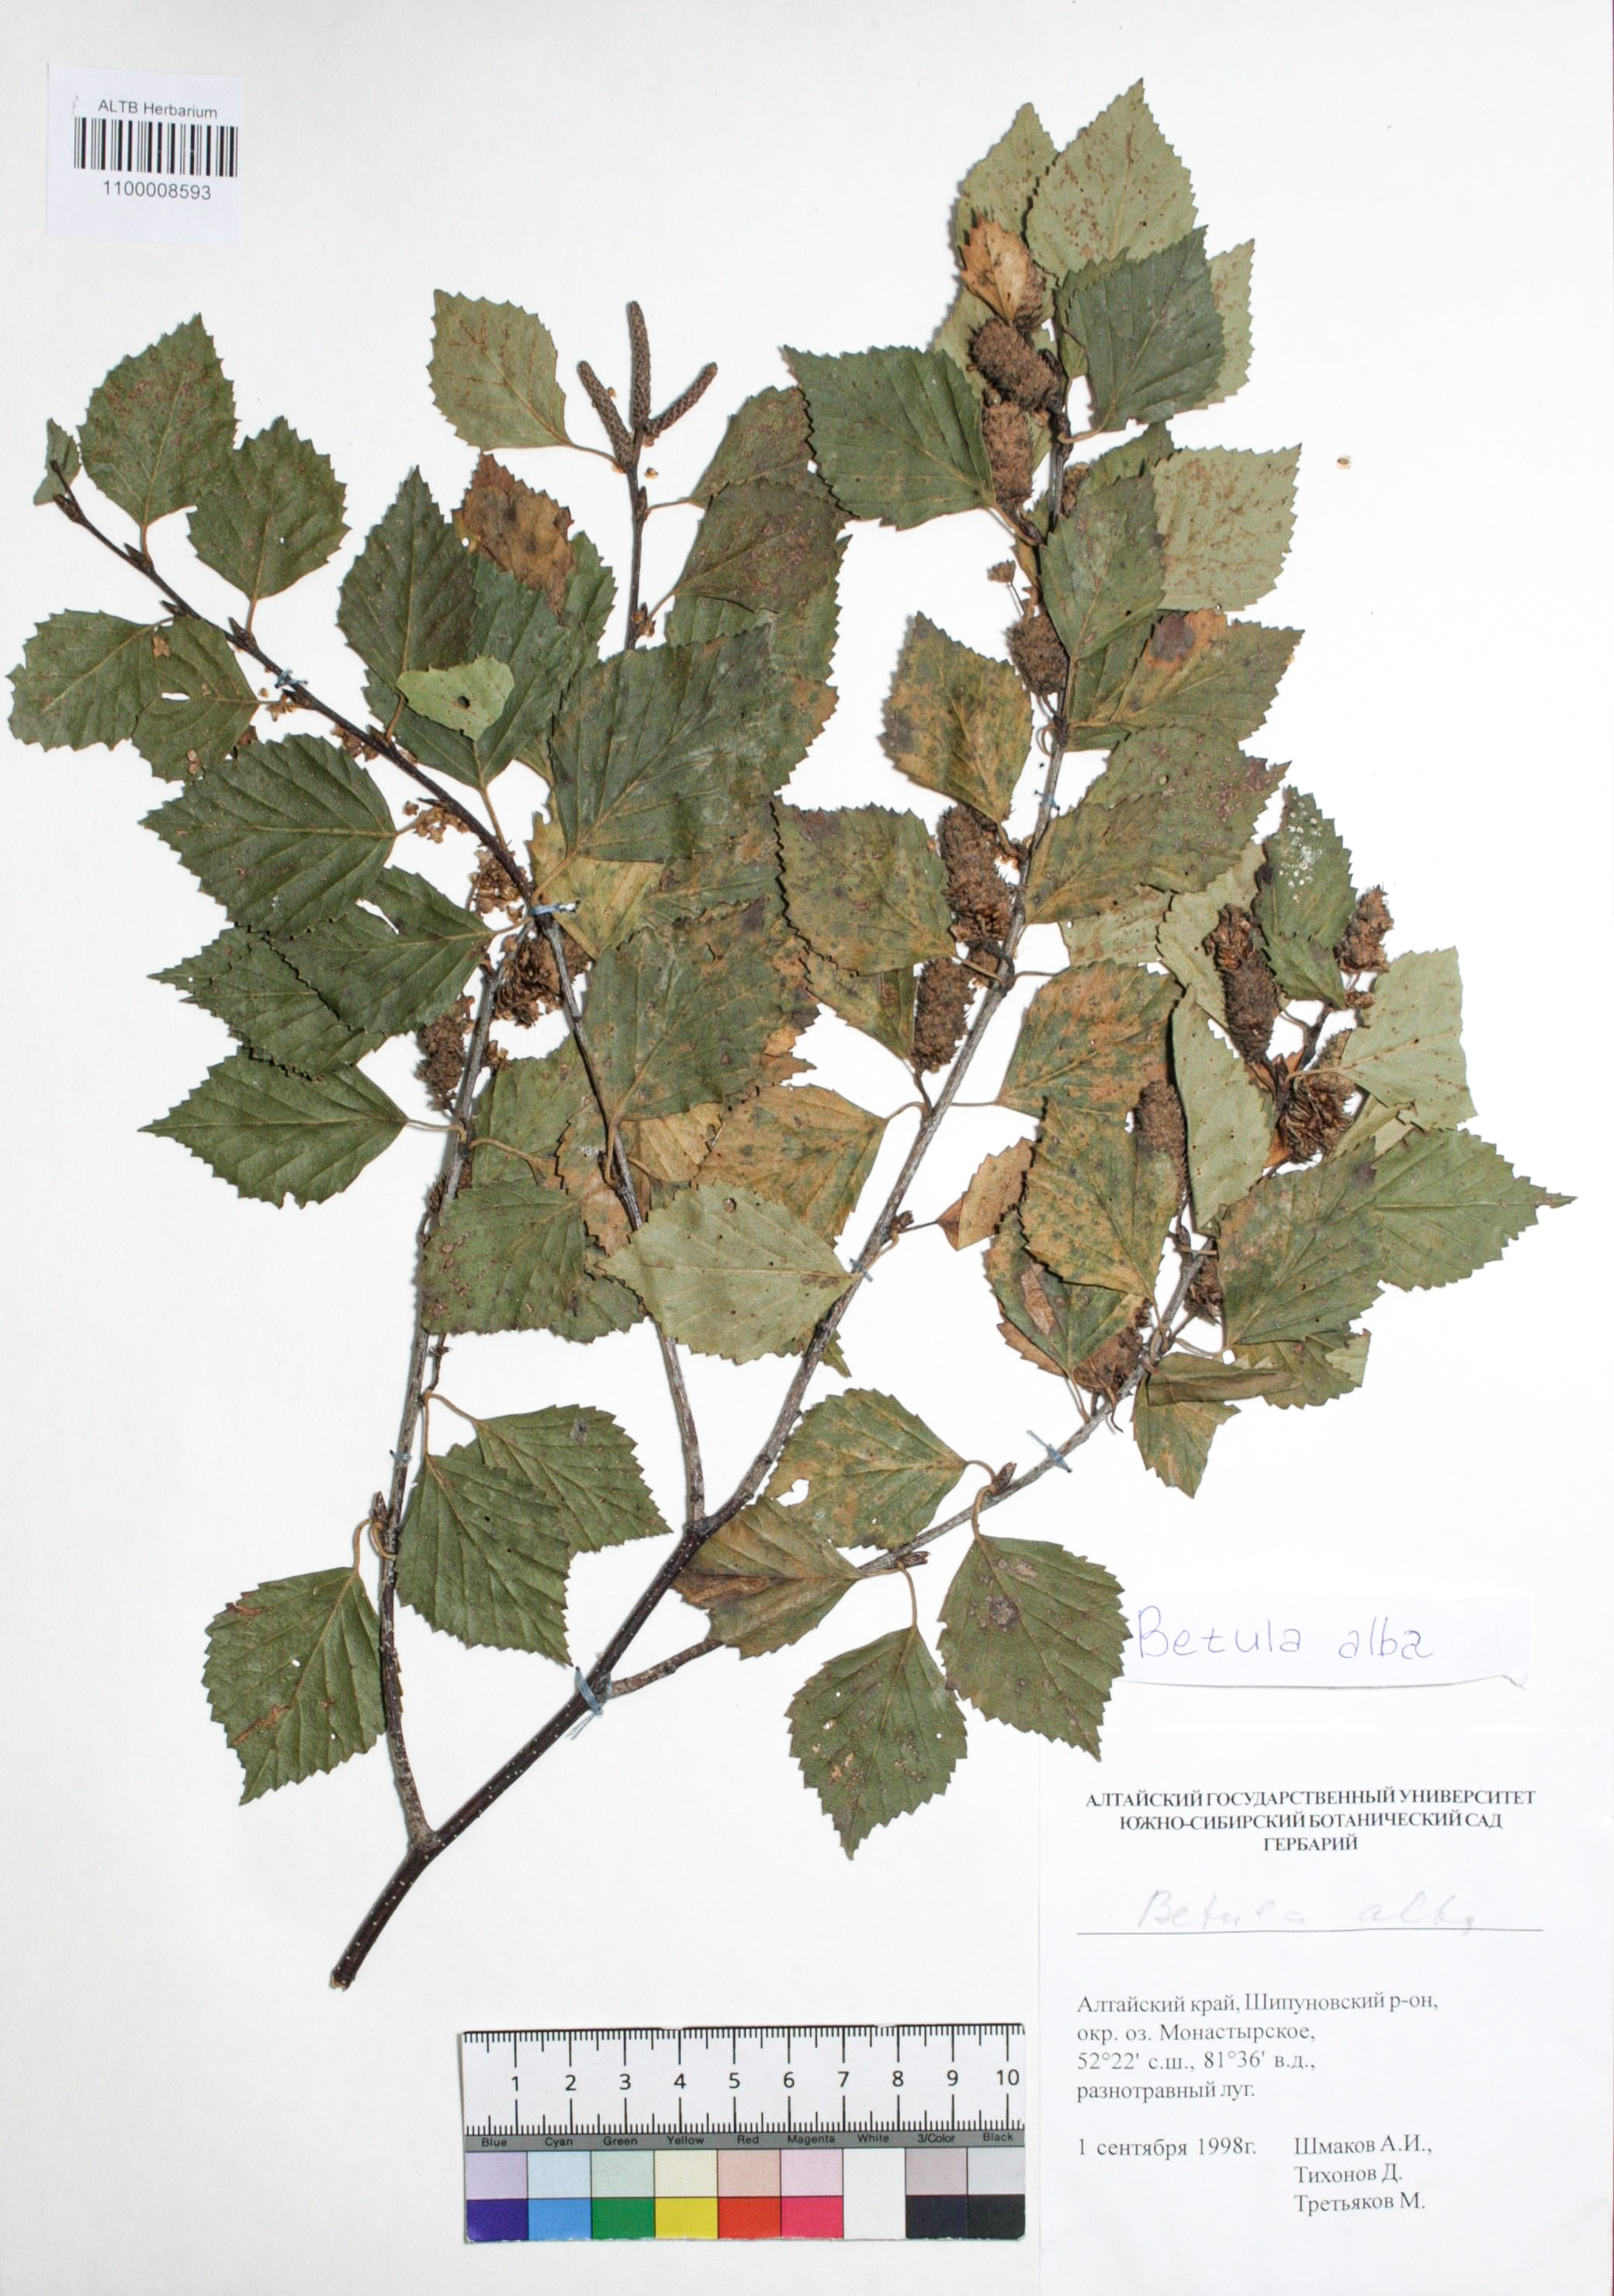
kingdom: Plantae
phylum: Tracheophyta
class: Magnoliopsida
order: Fagales
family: Betulaceae
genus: Betula
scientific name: Betula pubescens
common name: Downy birch
